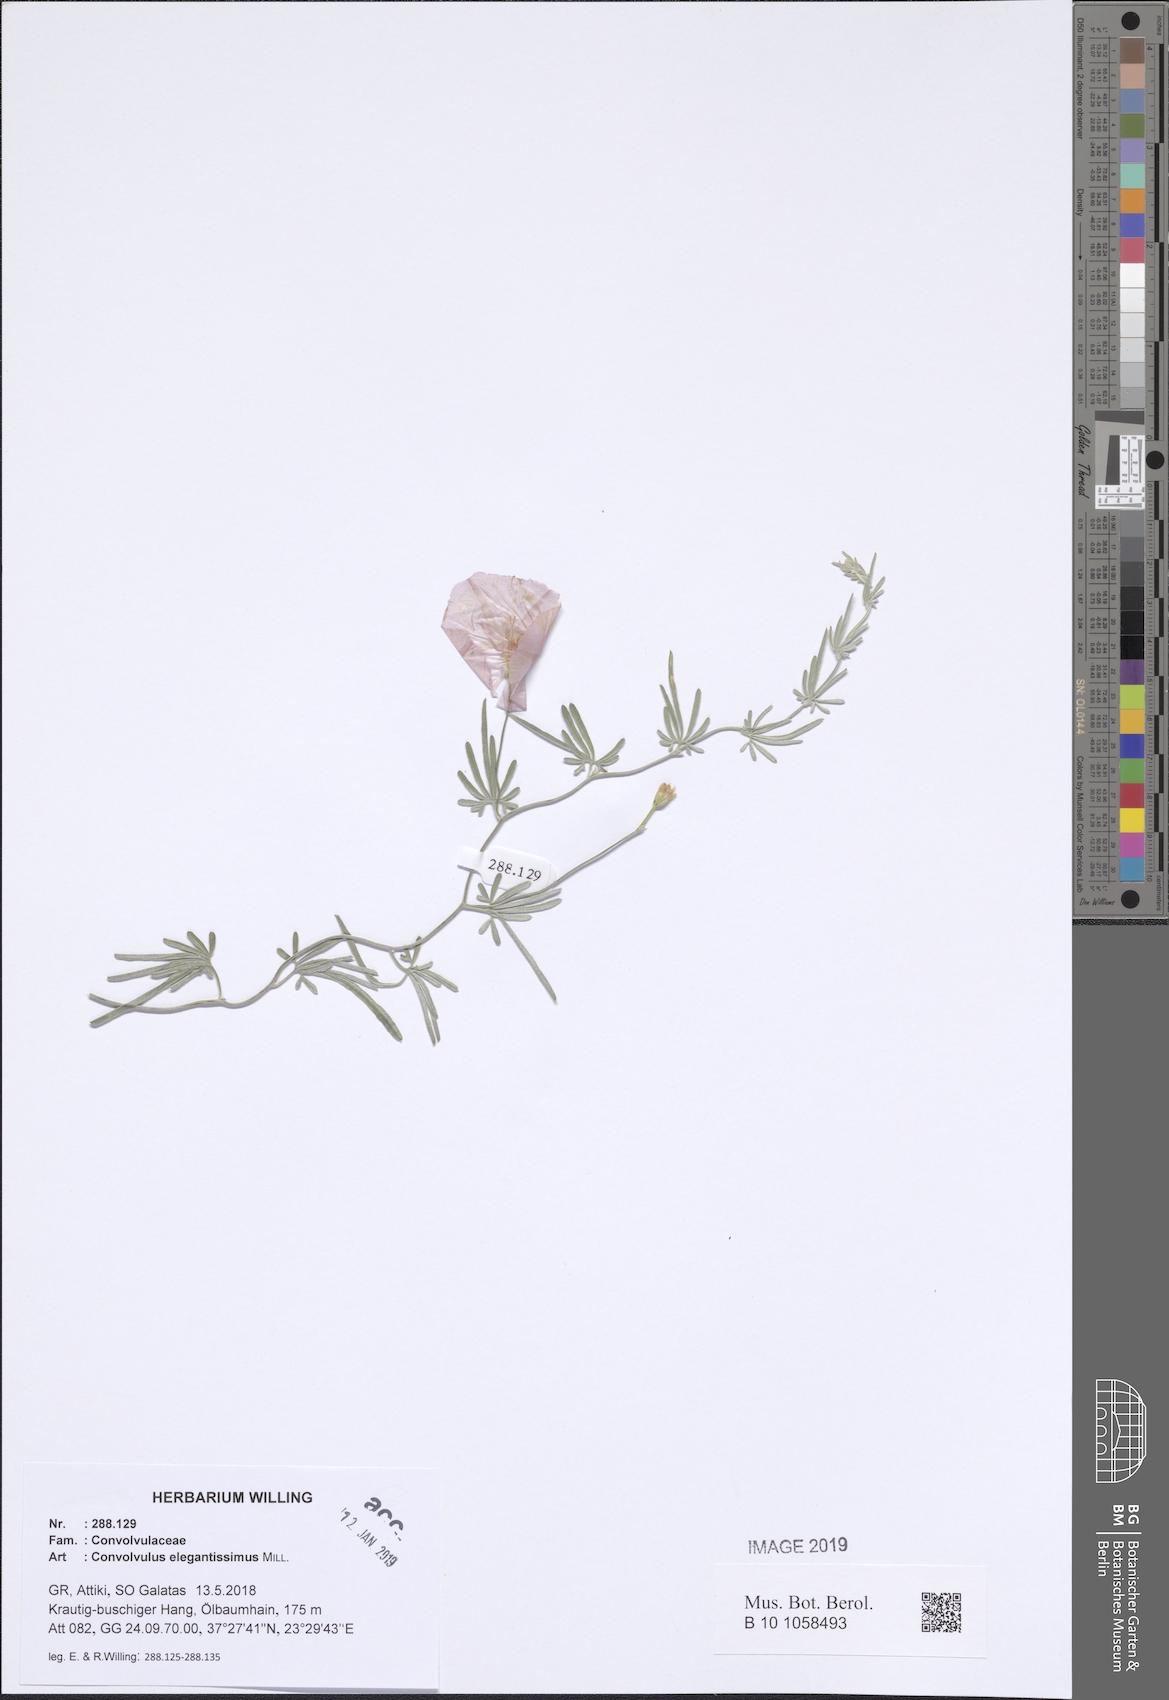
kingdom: Plantae
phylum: Tracheophyta
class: Magnoliopsida
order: Solanales
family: Convolvulaceae
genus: Convolvulus
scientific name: Convolvulus elegantissimus
